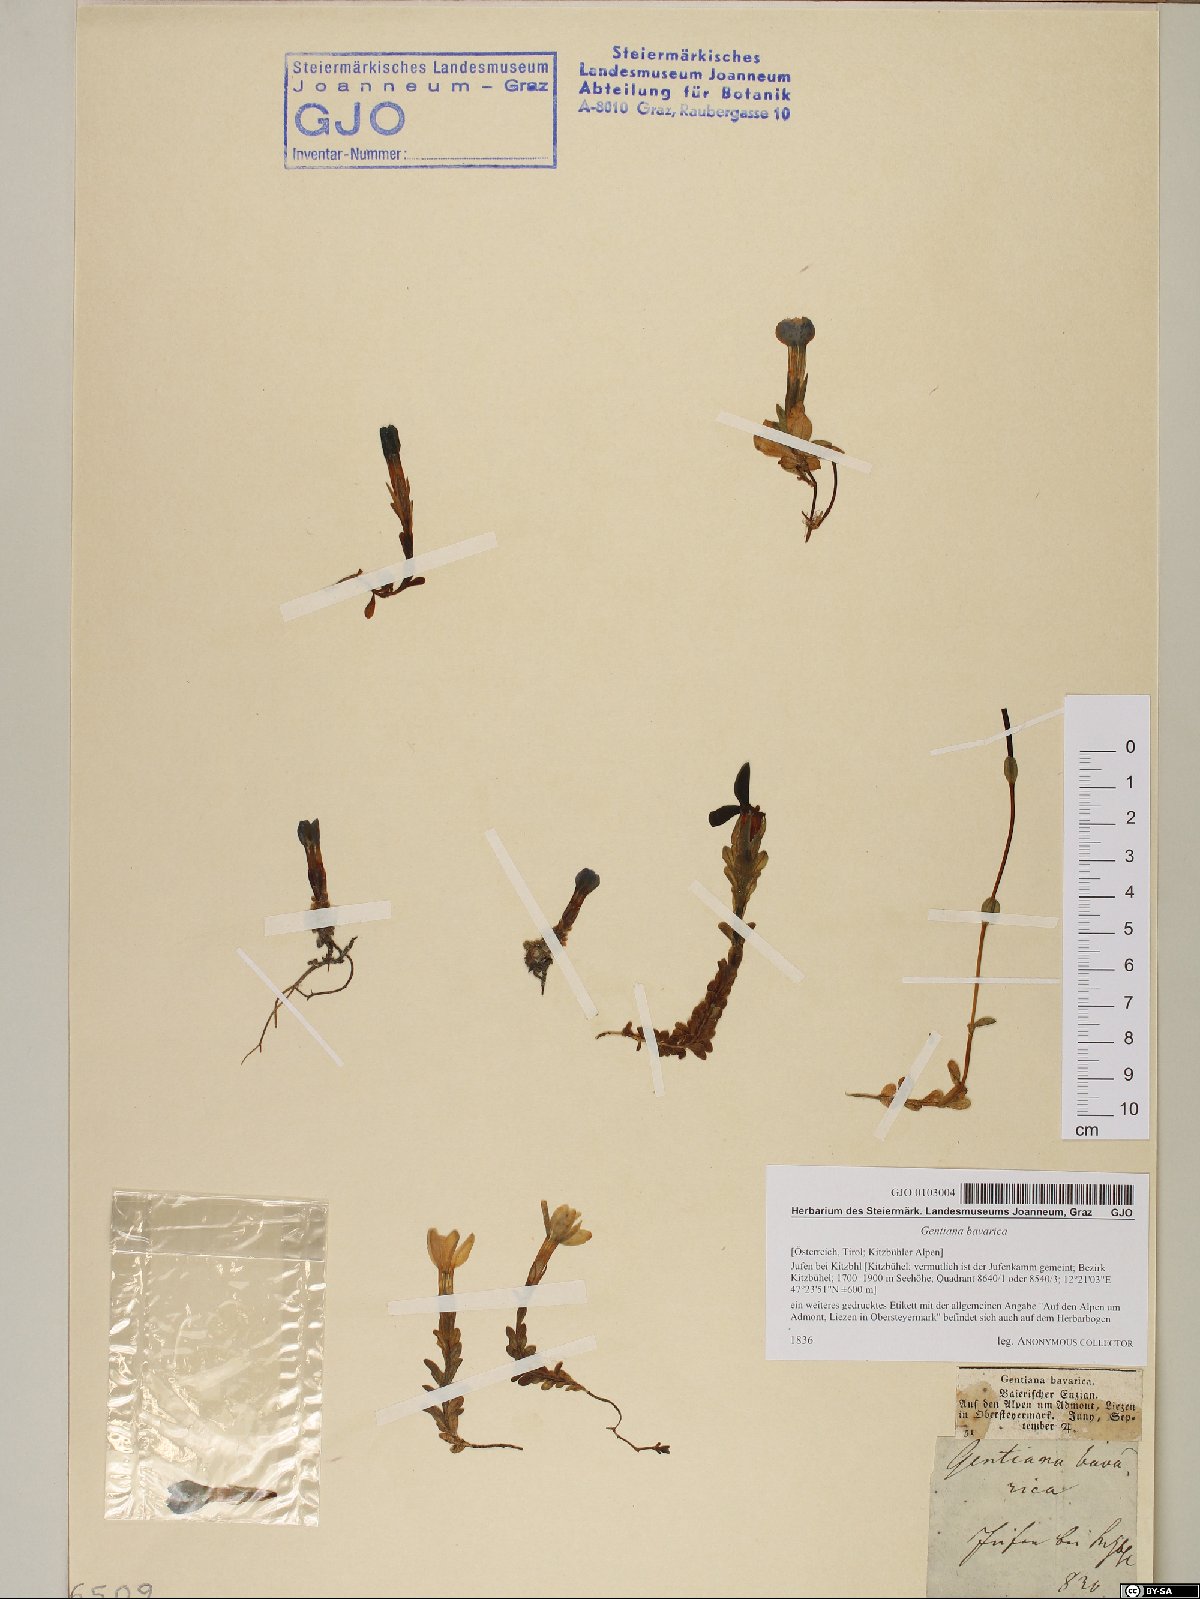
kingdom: Plantae
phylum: Tracheophyta
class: Magnoliopsida
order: Gentianales
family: Gentianaceae
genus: Gentiana
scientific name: Gentiana bavarica
